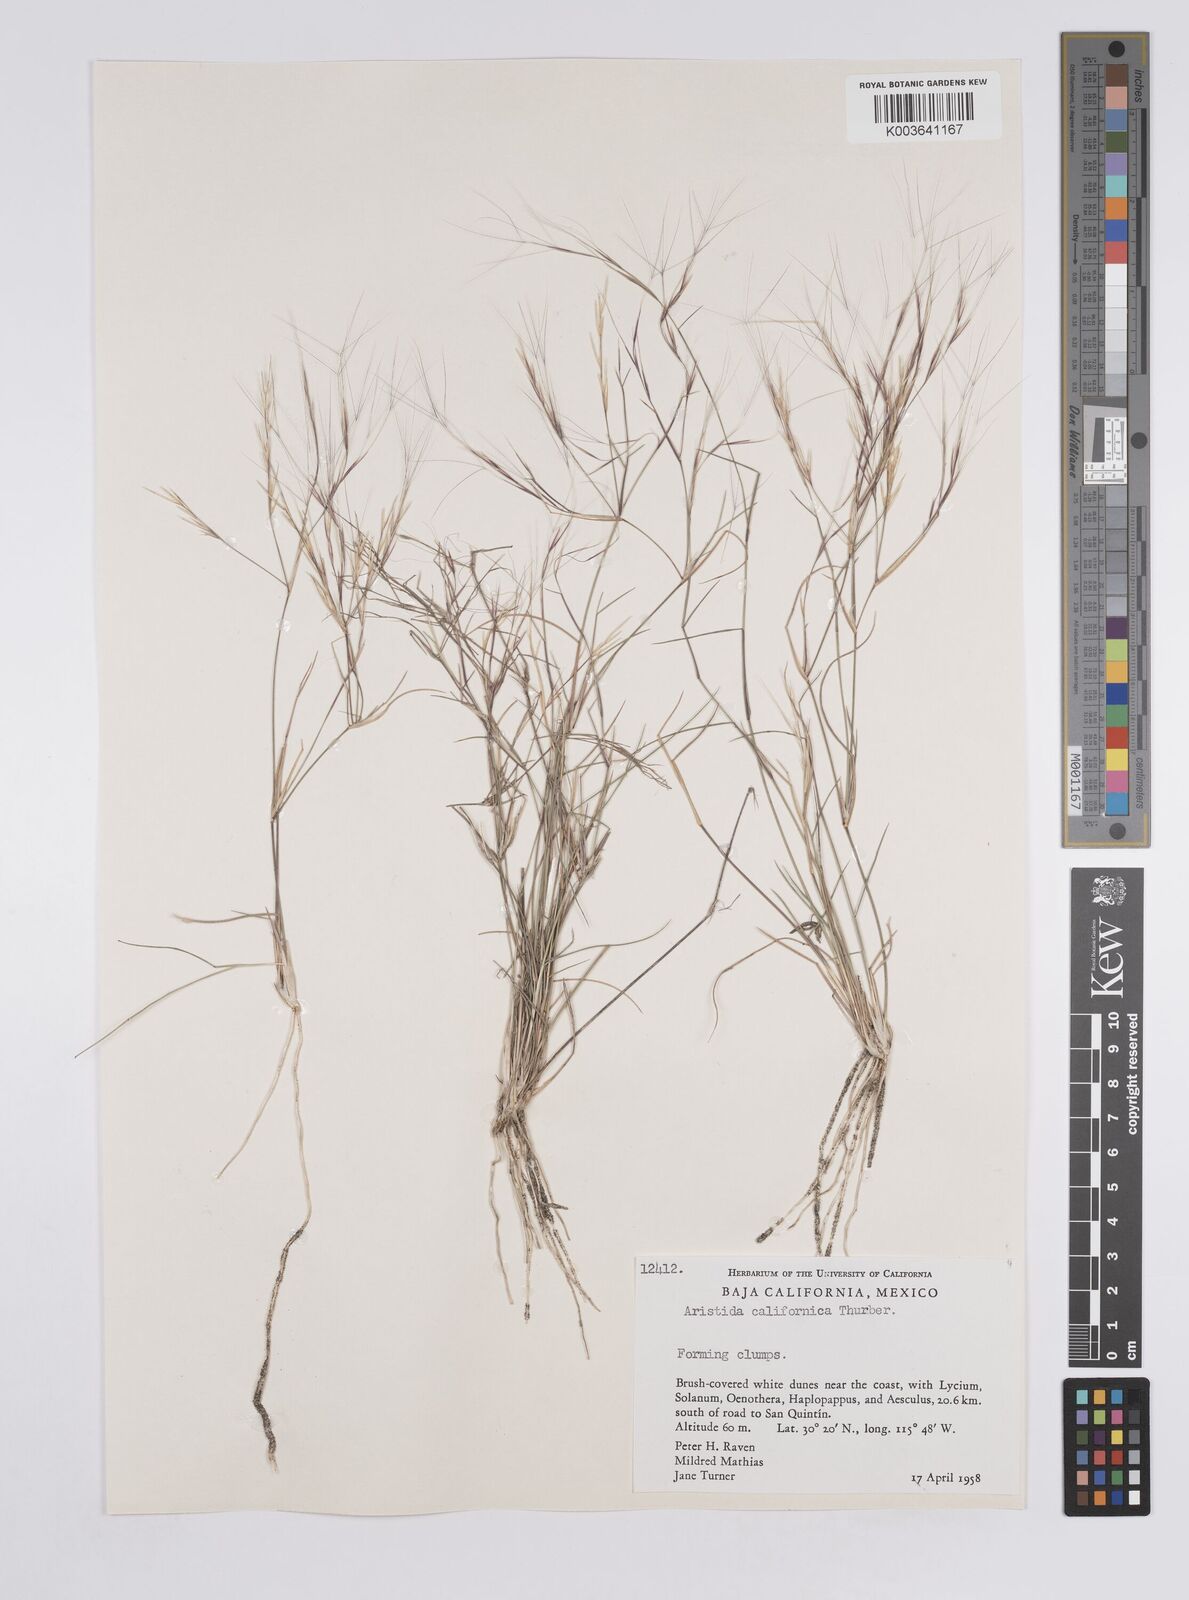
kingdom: Plantae
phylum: Tracheophyta
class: Liliopsida
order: Poales
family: Poaceae
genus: Aristida
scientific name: Aristida californica
